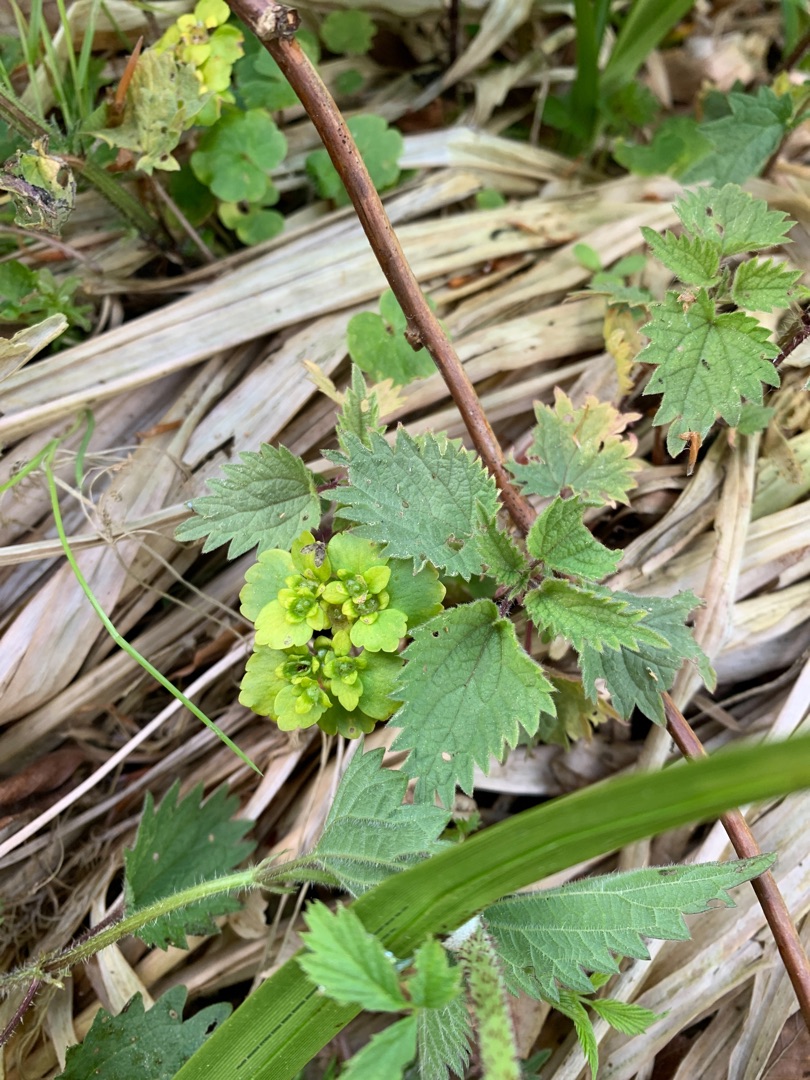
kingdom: Plantae
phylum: Tracheophyta
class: Magnoliopsida
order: Saxifragales
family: Saxifragaceae
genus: Chrysosplenium
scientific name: Chrysosplenium alternifolium
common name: Almindelig milturt
